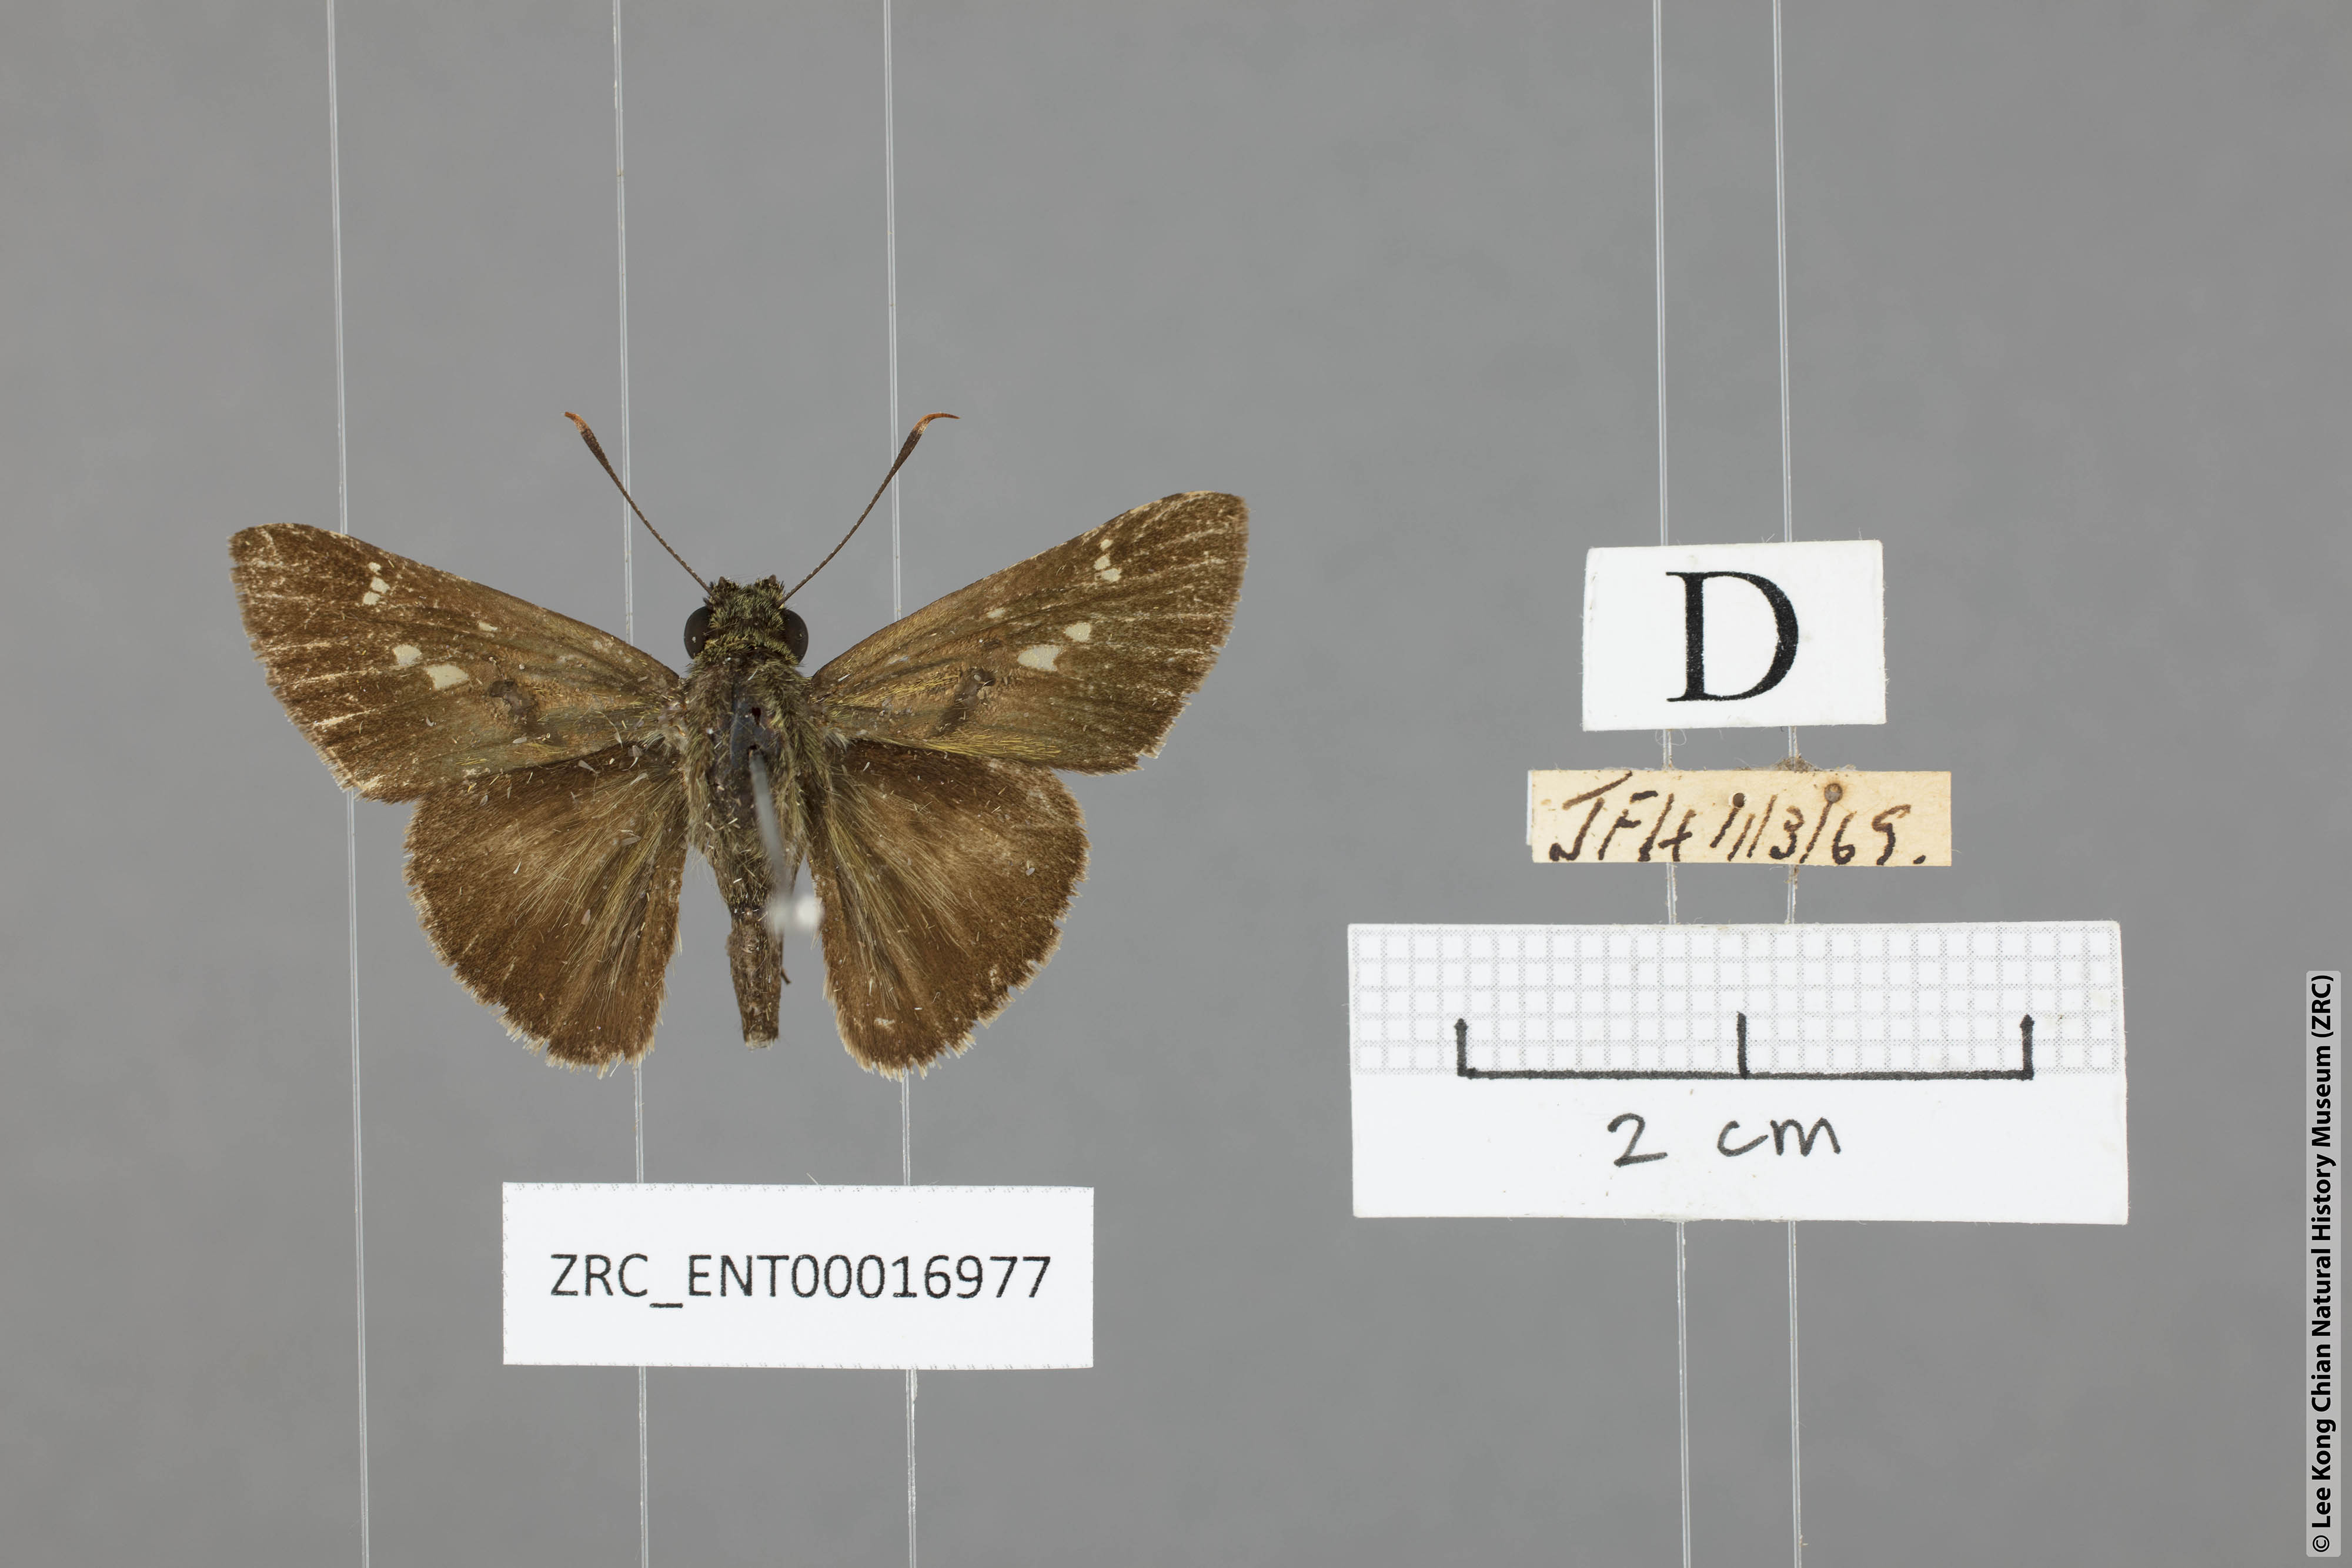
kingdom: Animalia
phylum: Arthropoda
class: Insecta
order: Lepidoptera
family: Hesperiidae
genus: Halpe
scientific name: Halpe elana
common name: Narrow-banded ace
